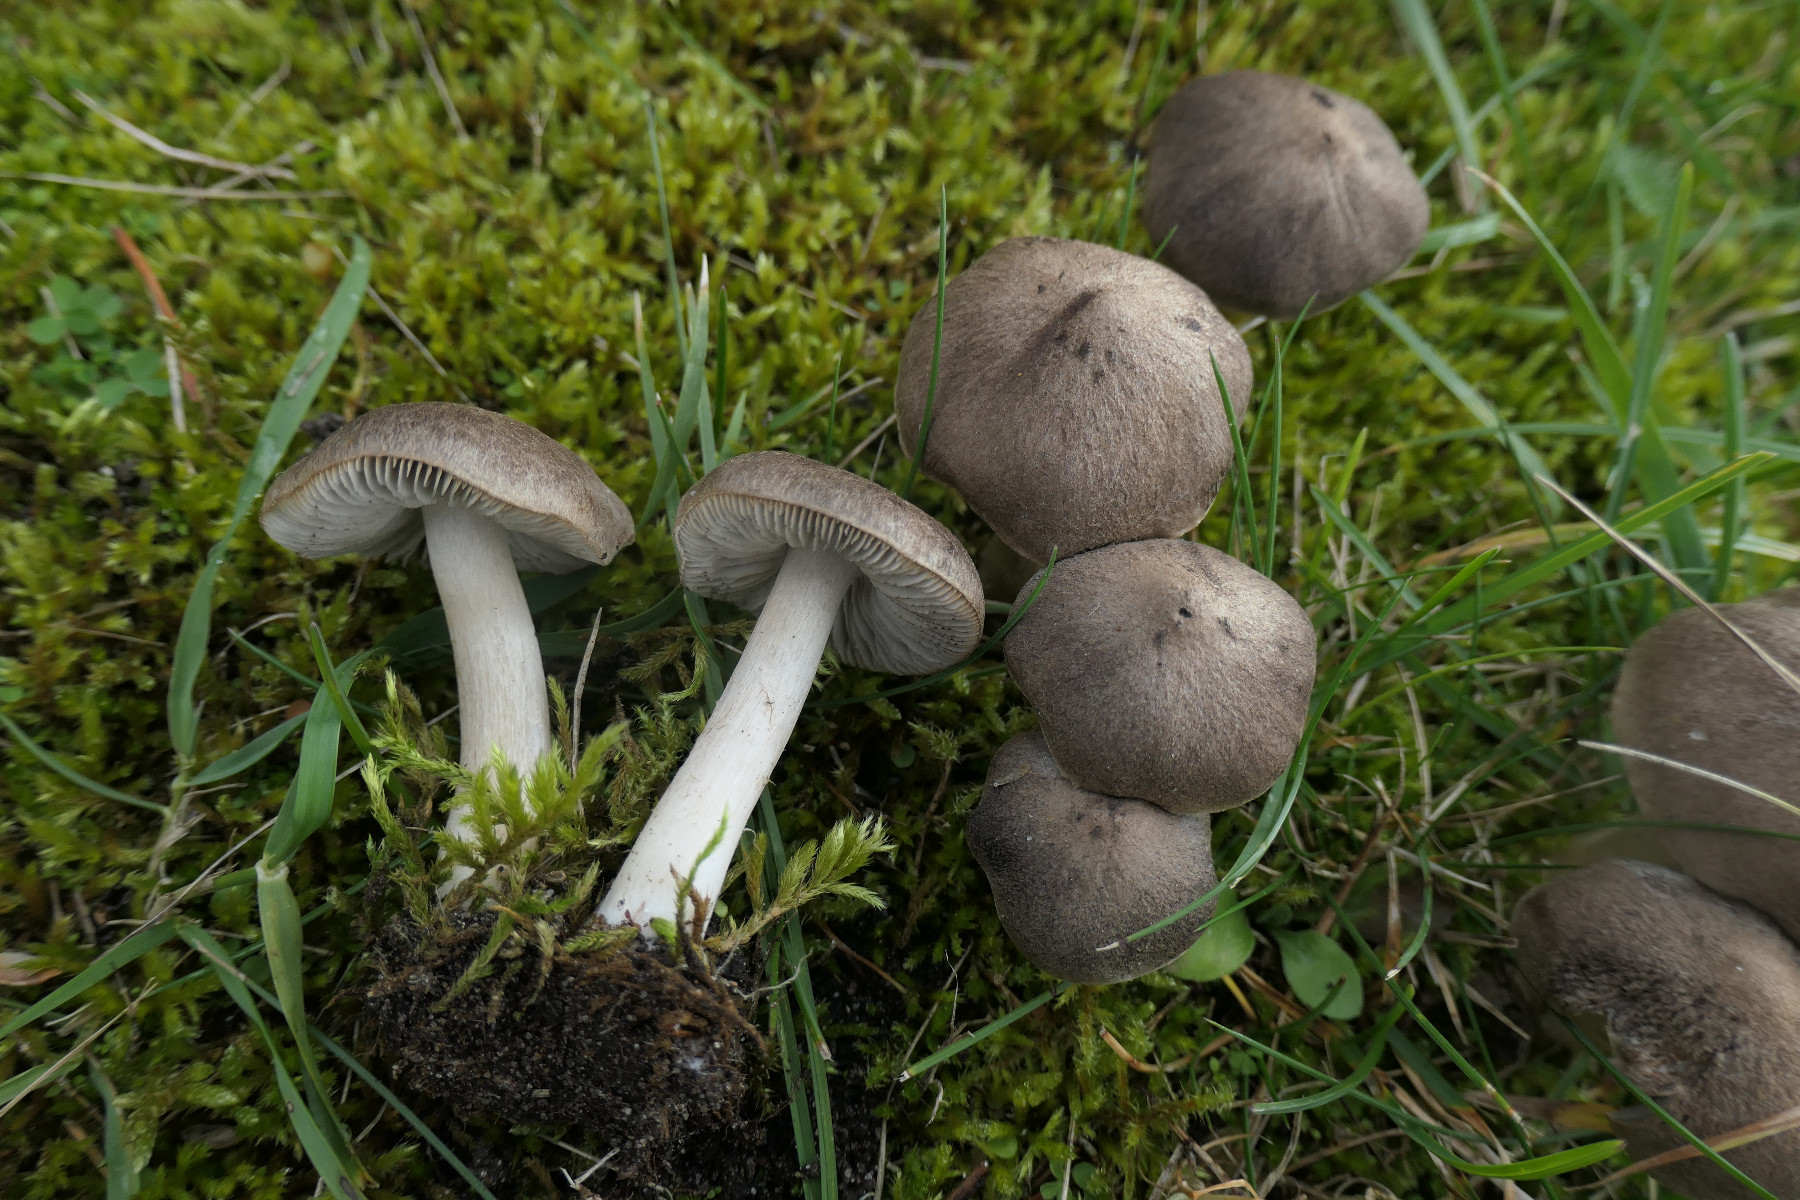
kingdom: Fungi
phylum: Basidiomycota
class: Agaricomycetes
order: Agaricales
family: Tricholomataceae
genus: Tricholoma
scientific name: Tricholoma terreum
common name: jordfarvet ridderhat
